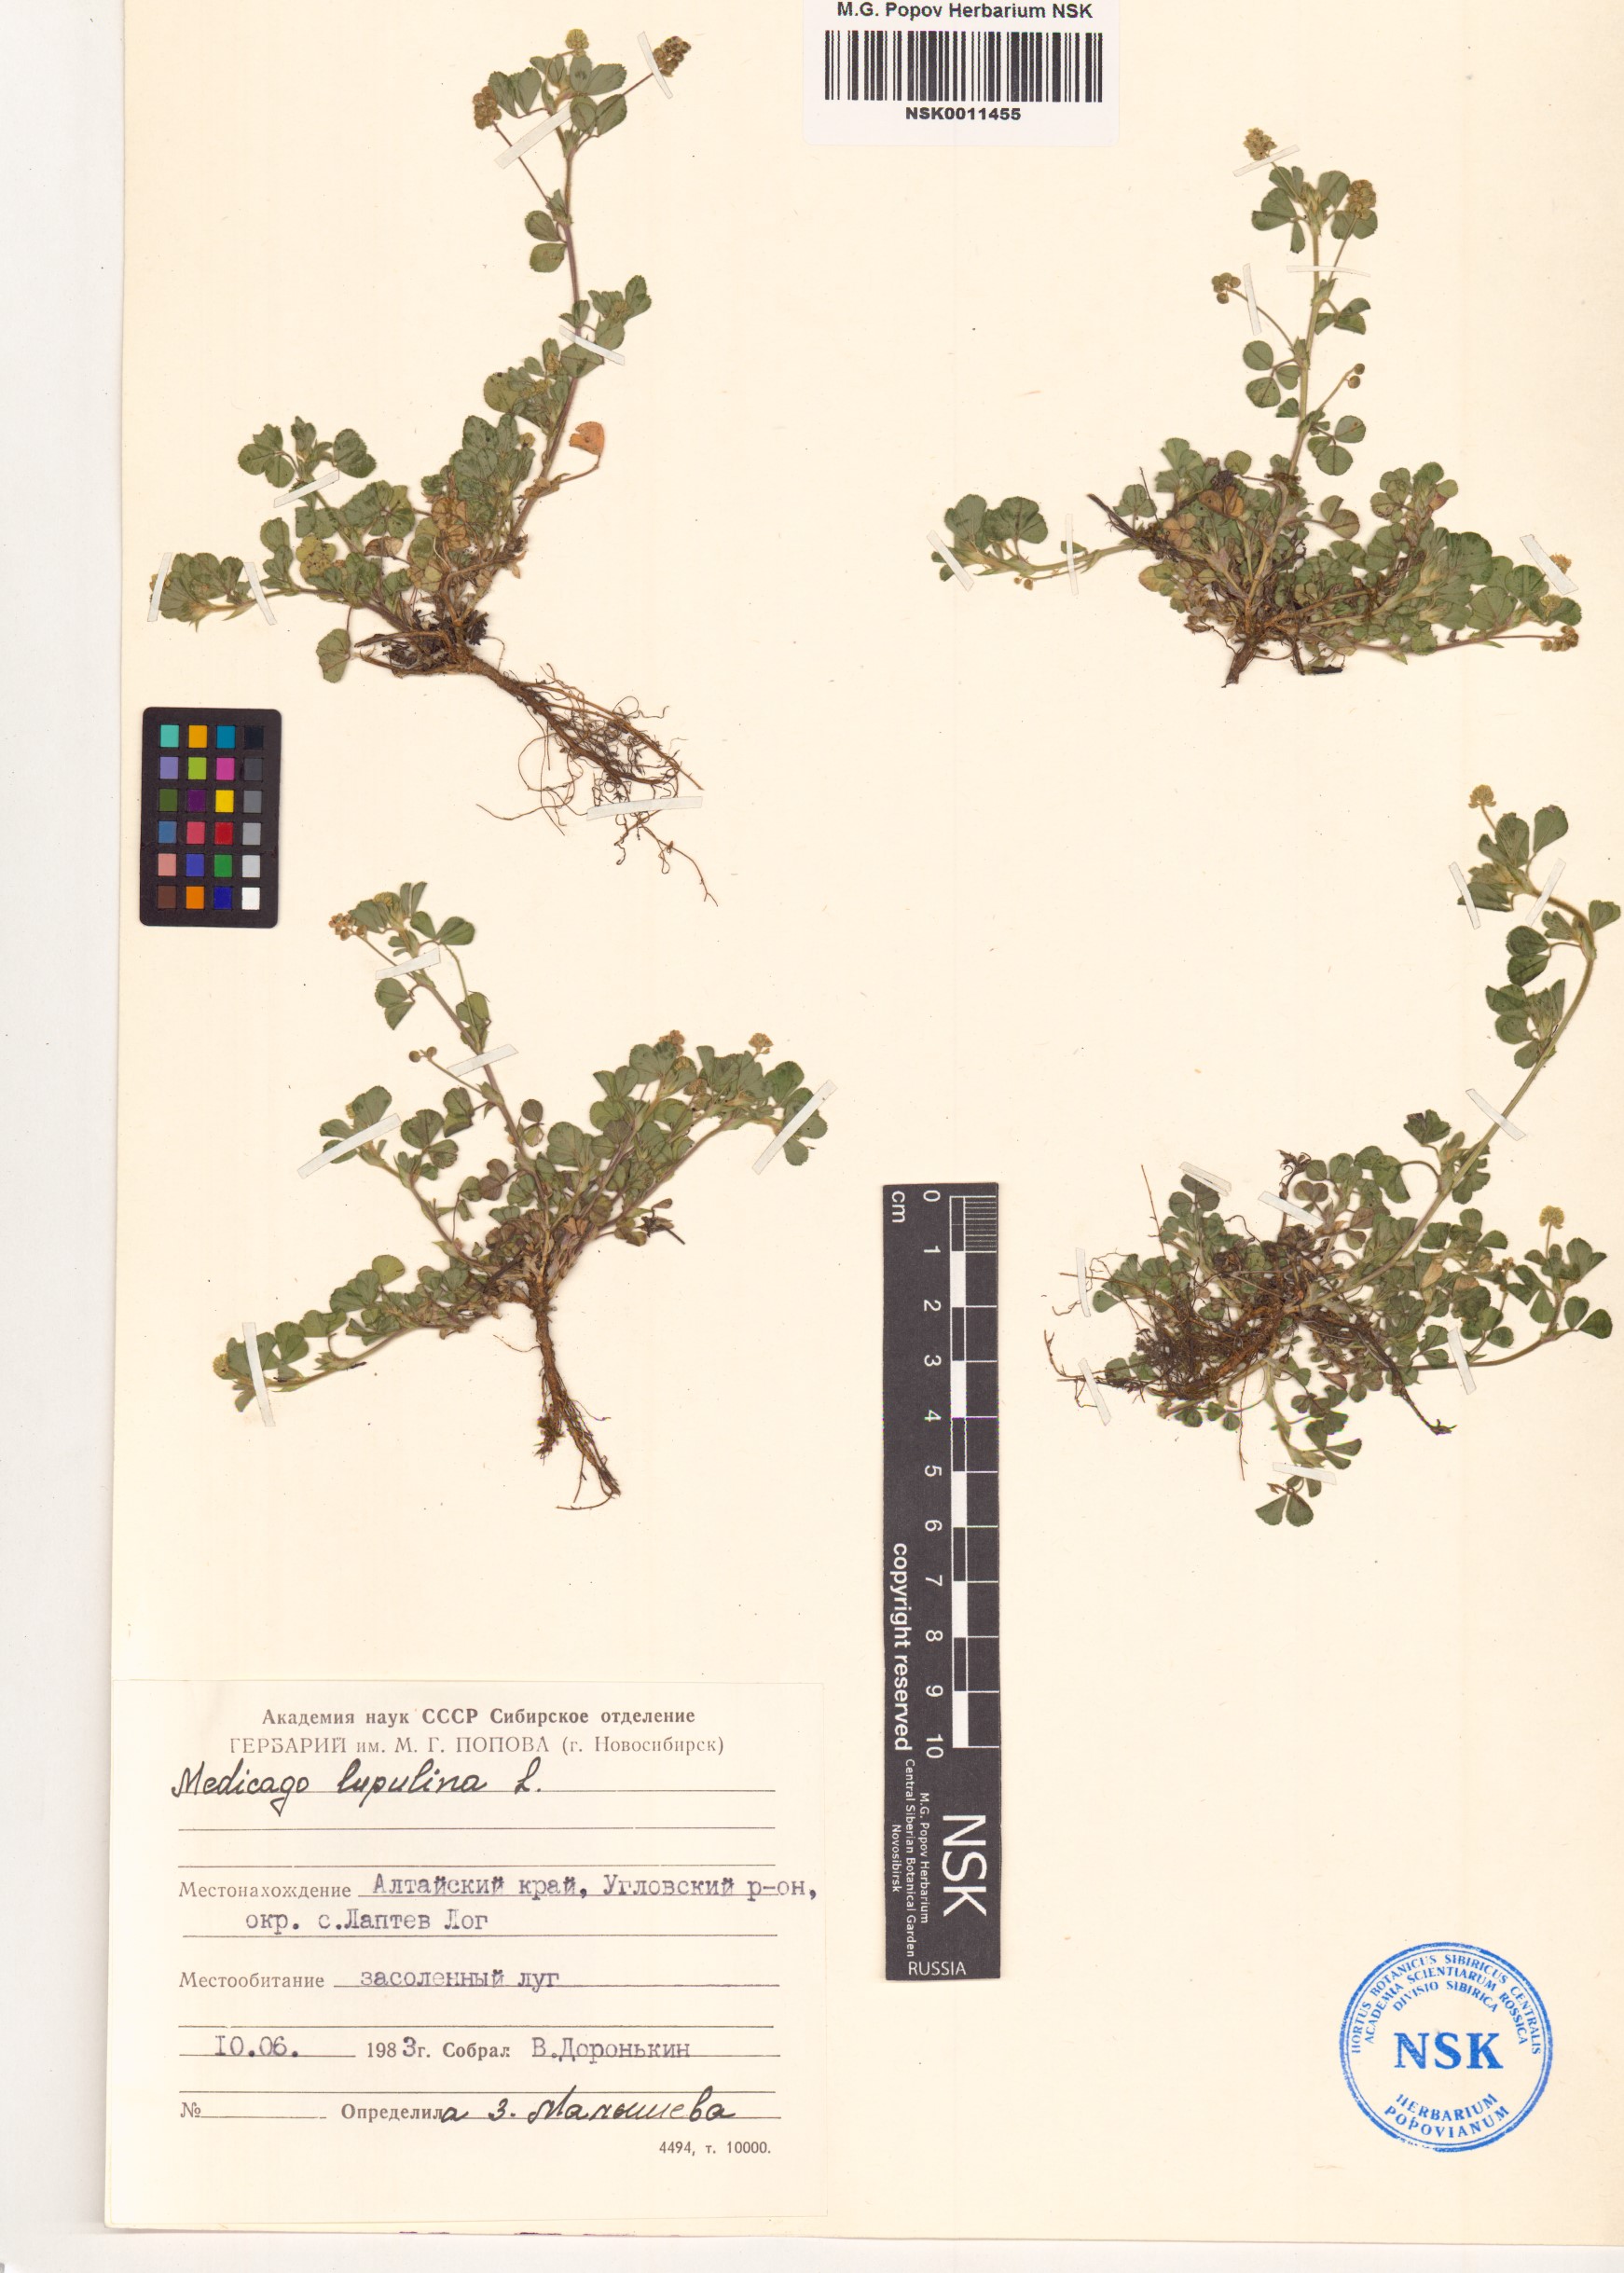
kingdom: Plantae
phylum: Tracheophyta
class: Magnoliopsida
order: Fabales
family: Fabaceae
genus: Medicago
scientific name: Medicago lupulina
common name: Black medick
